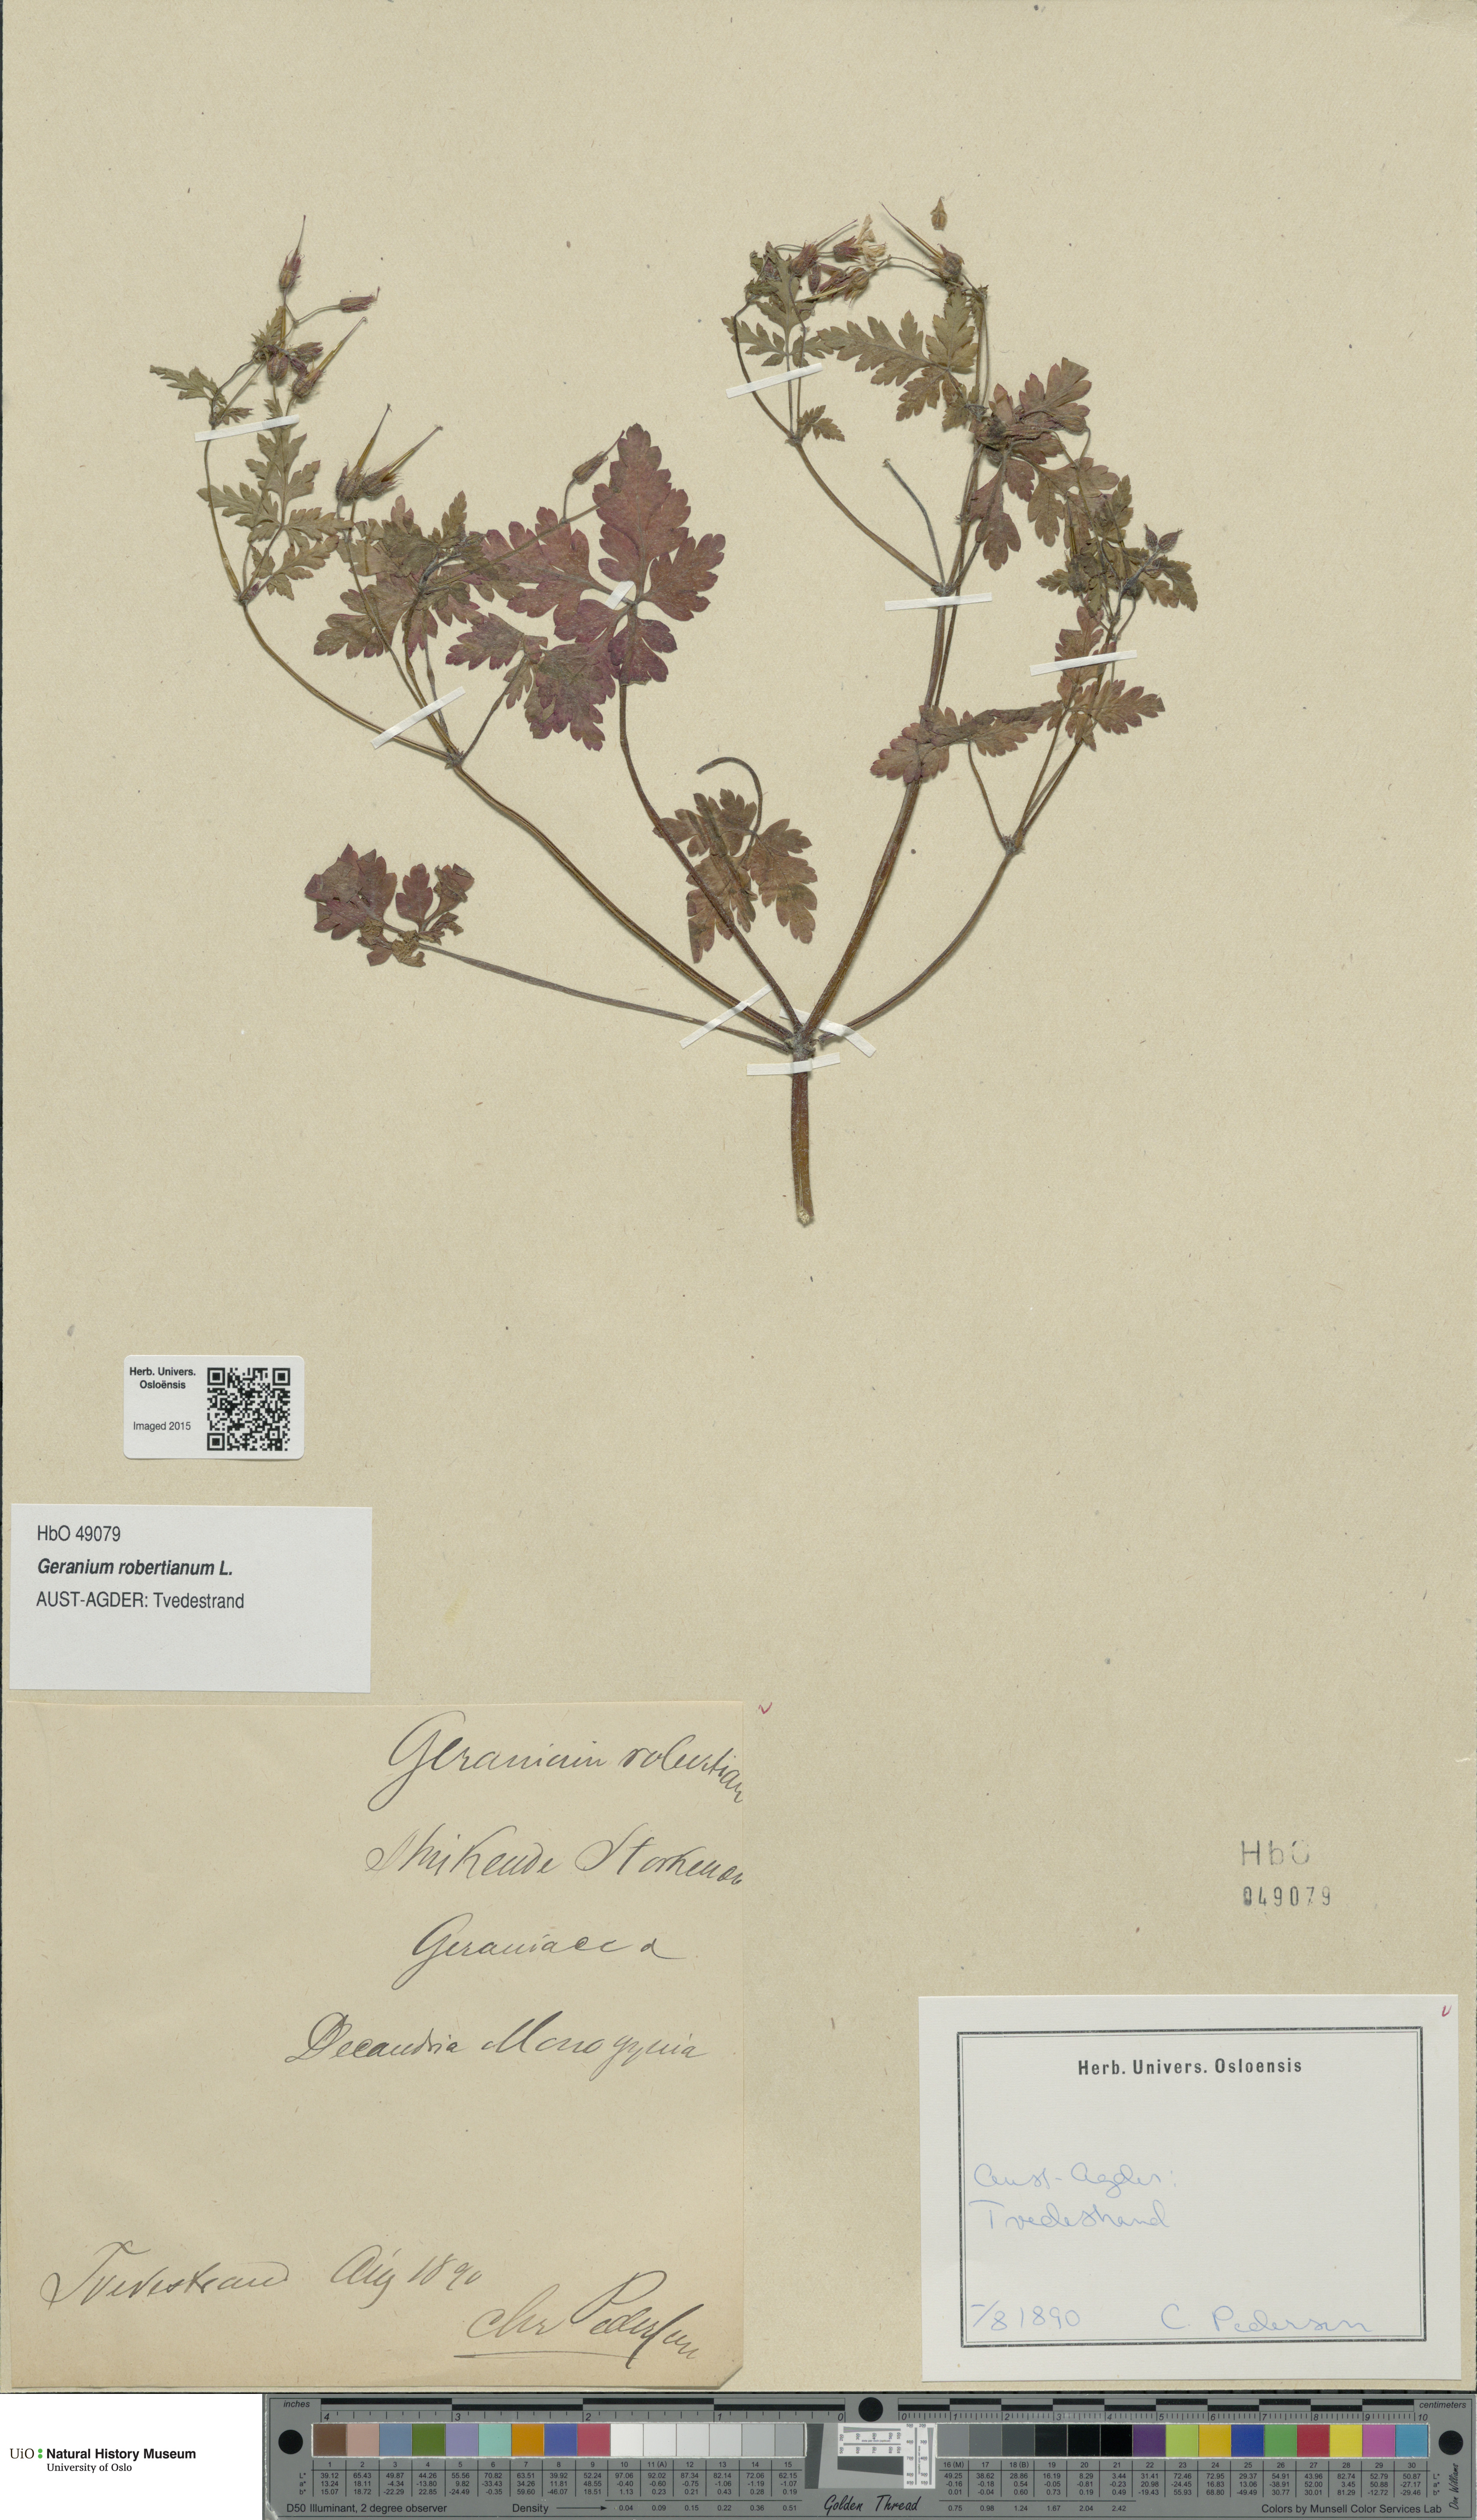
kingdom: Plantae
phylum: Tracheophyta
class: Magnoliopsida
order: Geraniales
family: Geraniaceae
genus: Geranium
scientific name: Geranium robertianum
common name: Herb-robert
